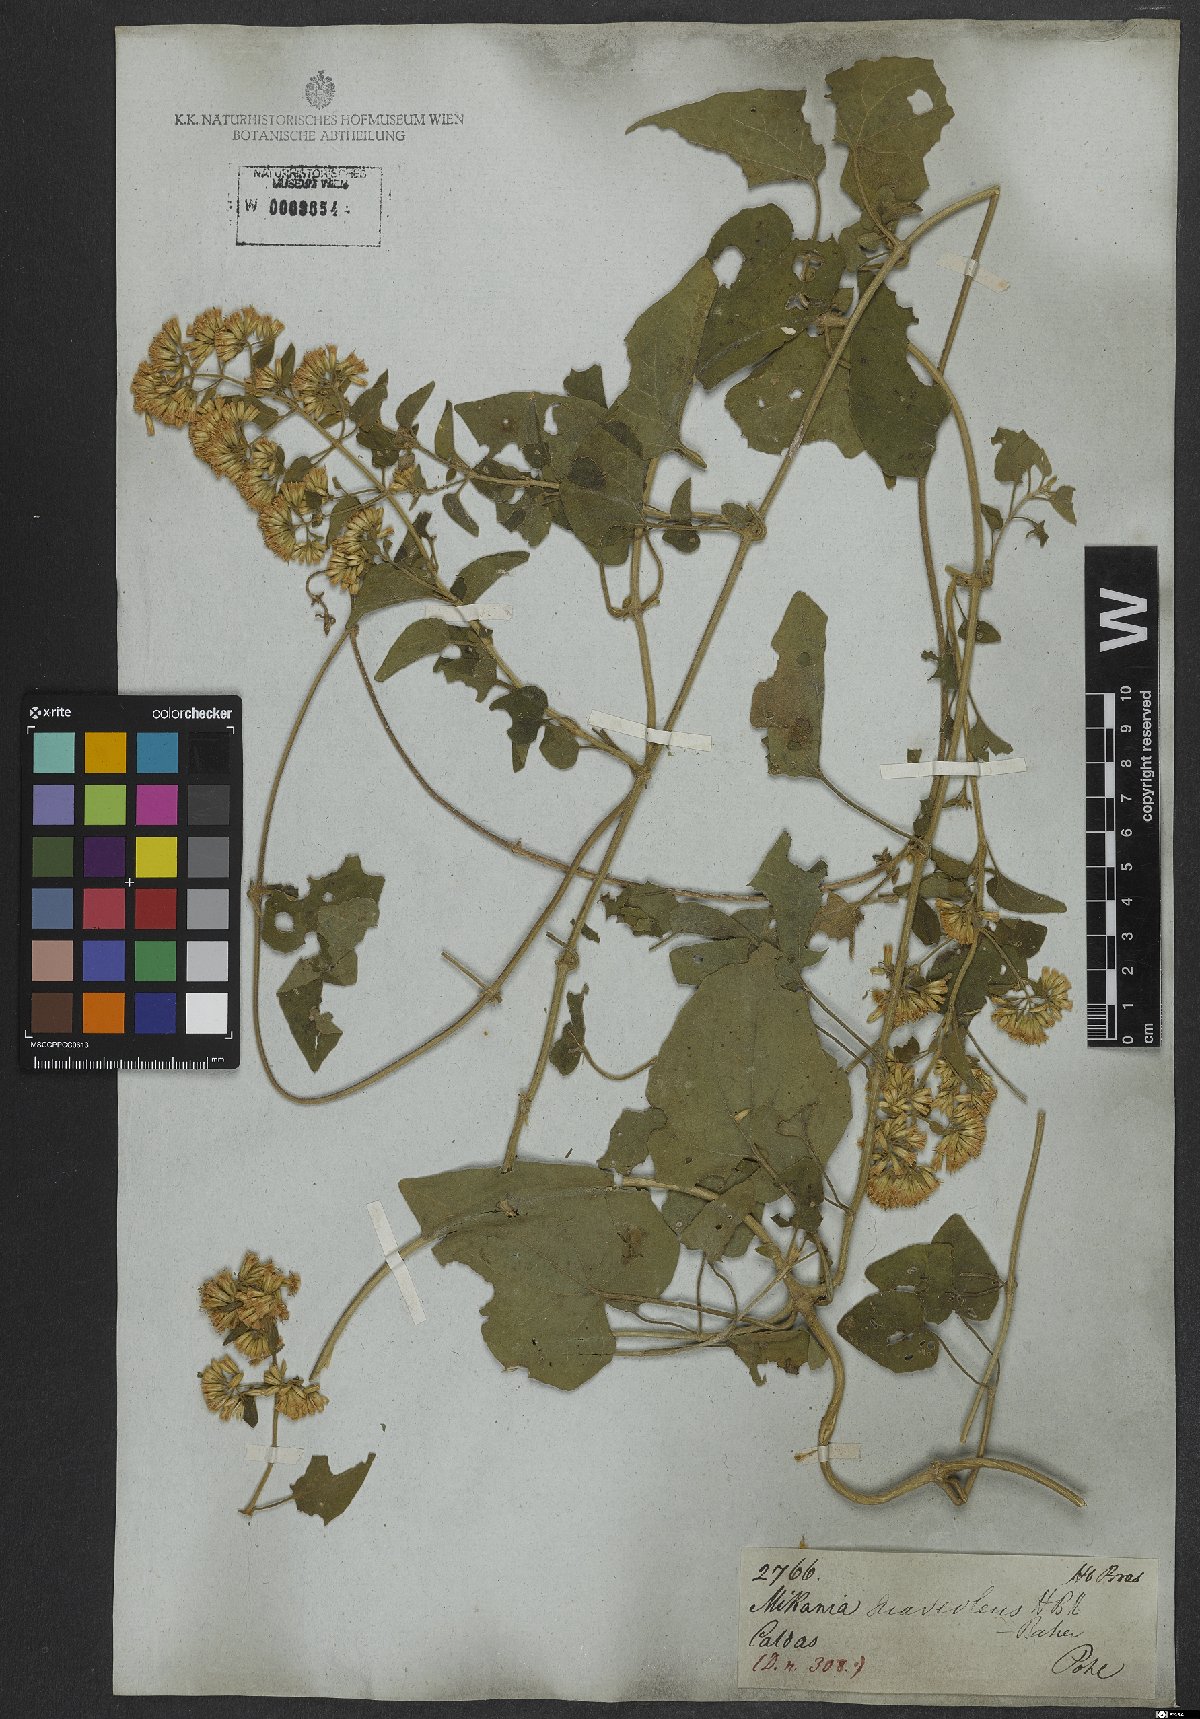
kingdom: Plantae
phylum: Tracheophyta
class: Magnoliopsida
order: Asterales
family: Asteraceae
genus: Mikania
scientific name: Mikania cordifolia
